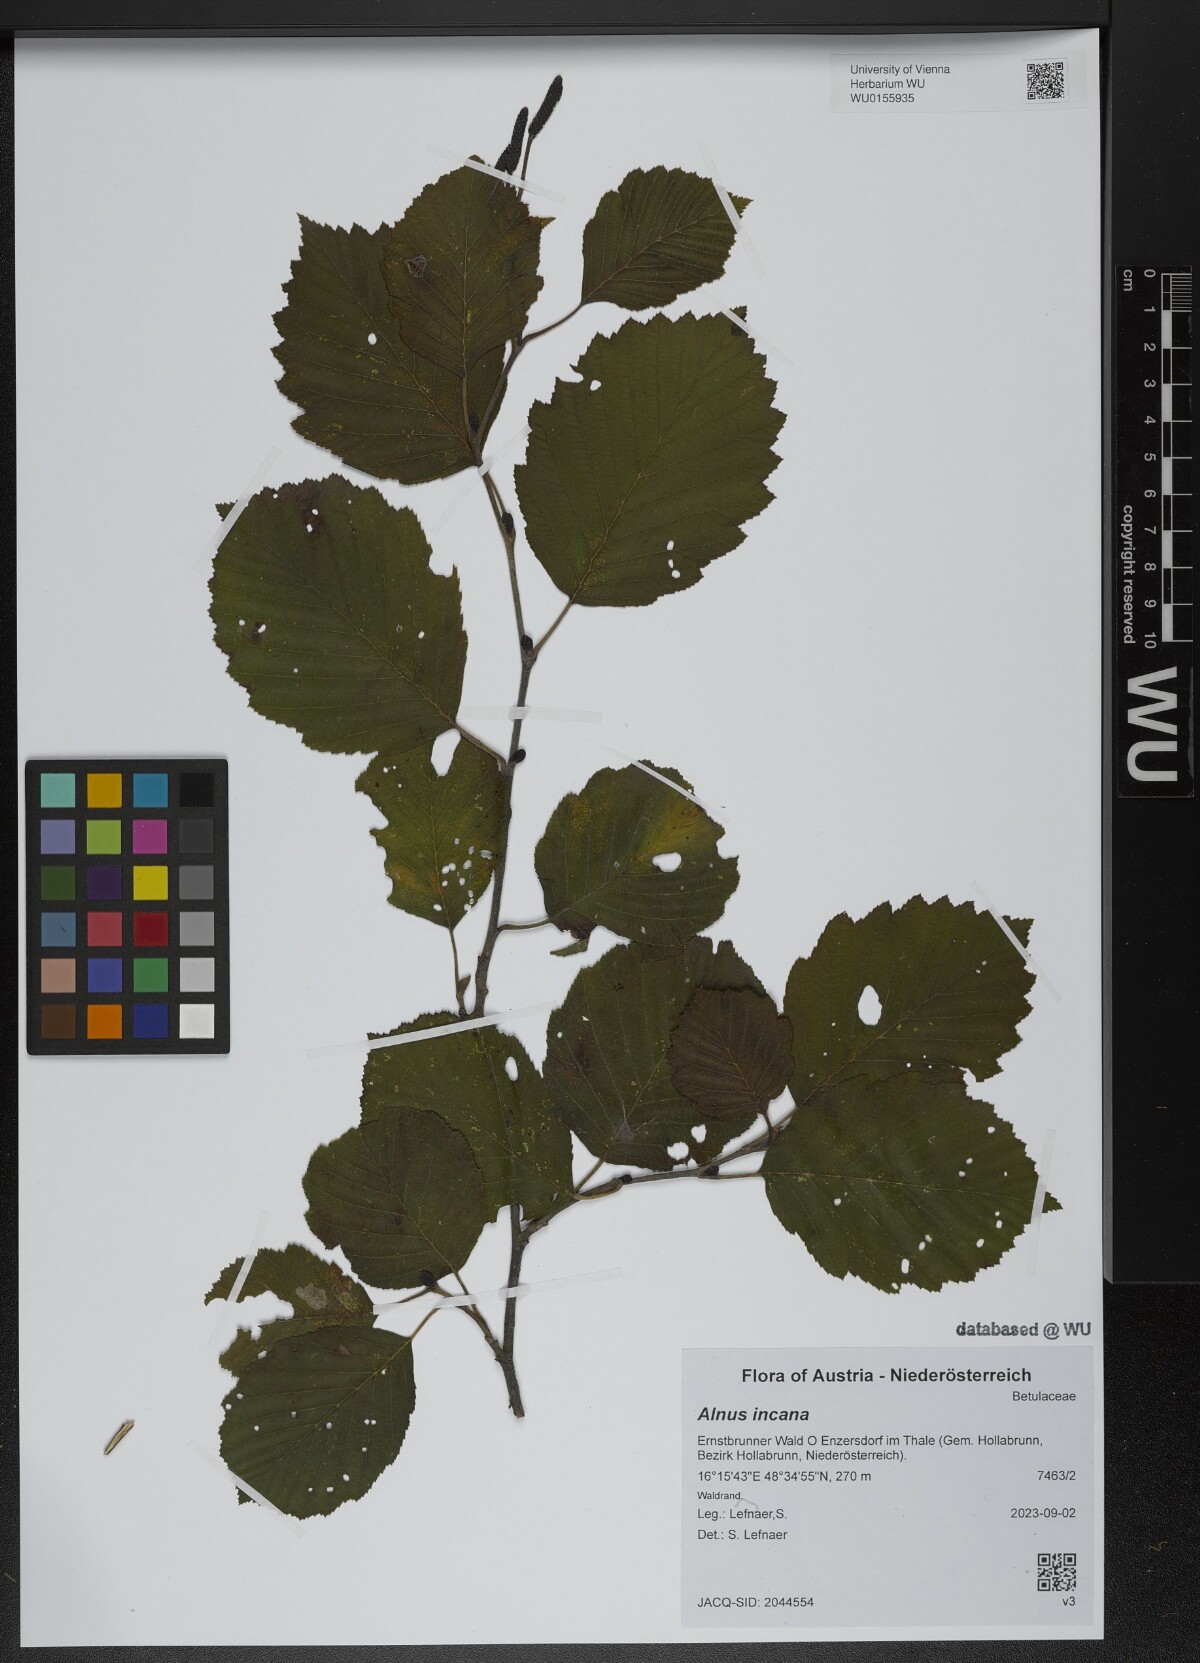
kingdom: Plantae
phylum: Tracheophyta
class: Magnoliopsida
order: Fagales
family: Betulaceae
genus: Alnus
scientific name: Alnus incana
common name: Grey alder
